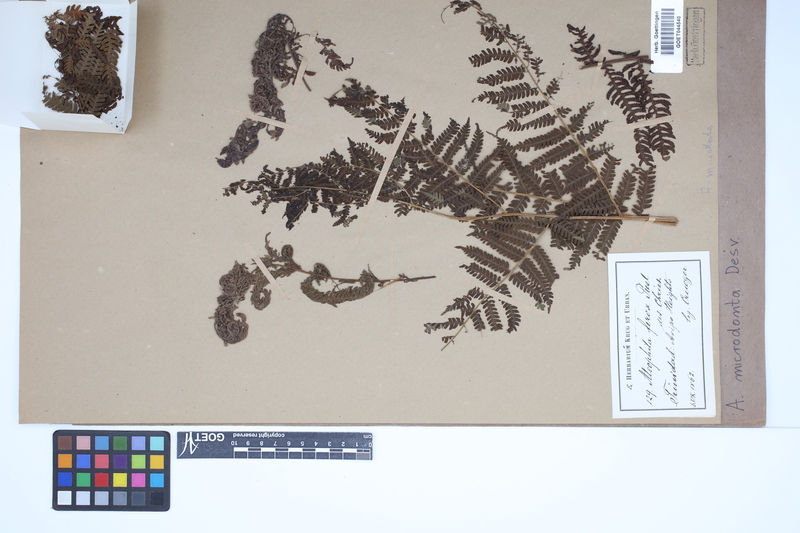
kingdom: Plantae
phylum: Tracheophyta
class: Polypodiopsida
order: Cyatheales
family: Cyatheaceae
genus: Cyathea
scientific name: Cyathea microdonta
